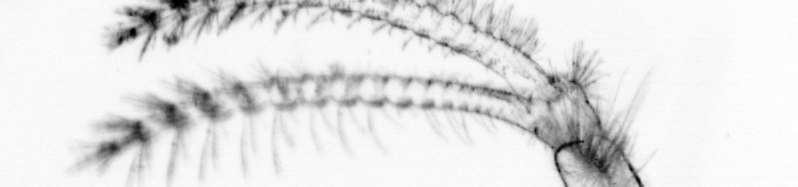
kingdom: Animalia
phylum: Arthropoda
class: Maxillopoda
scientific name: Maxillopoda
